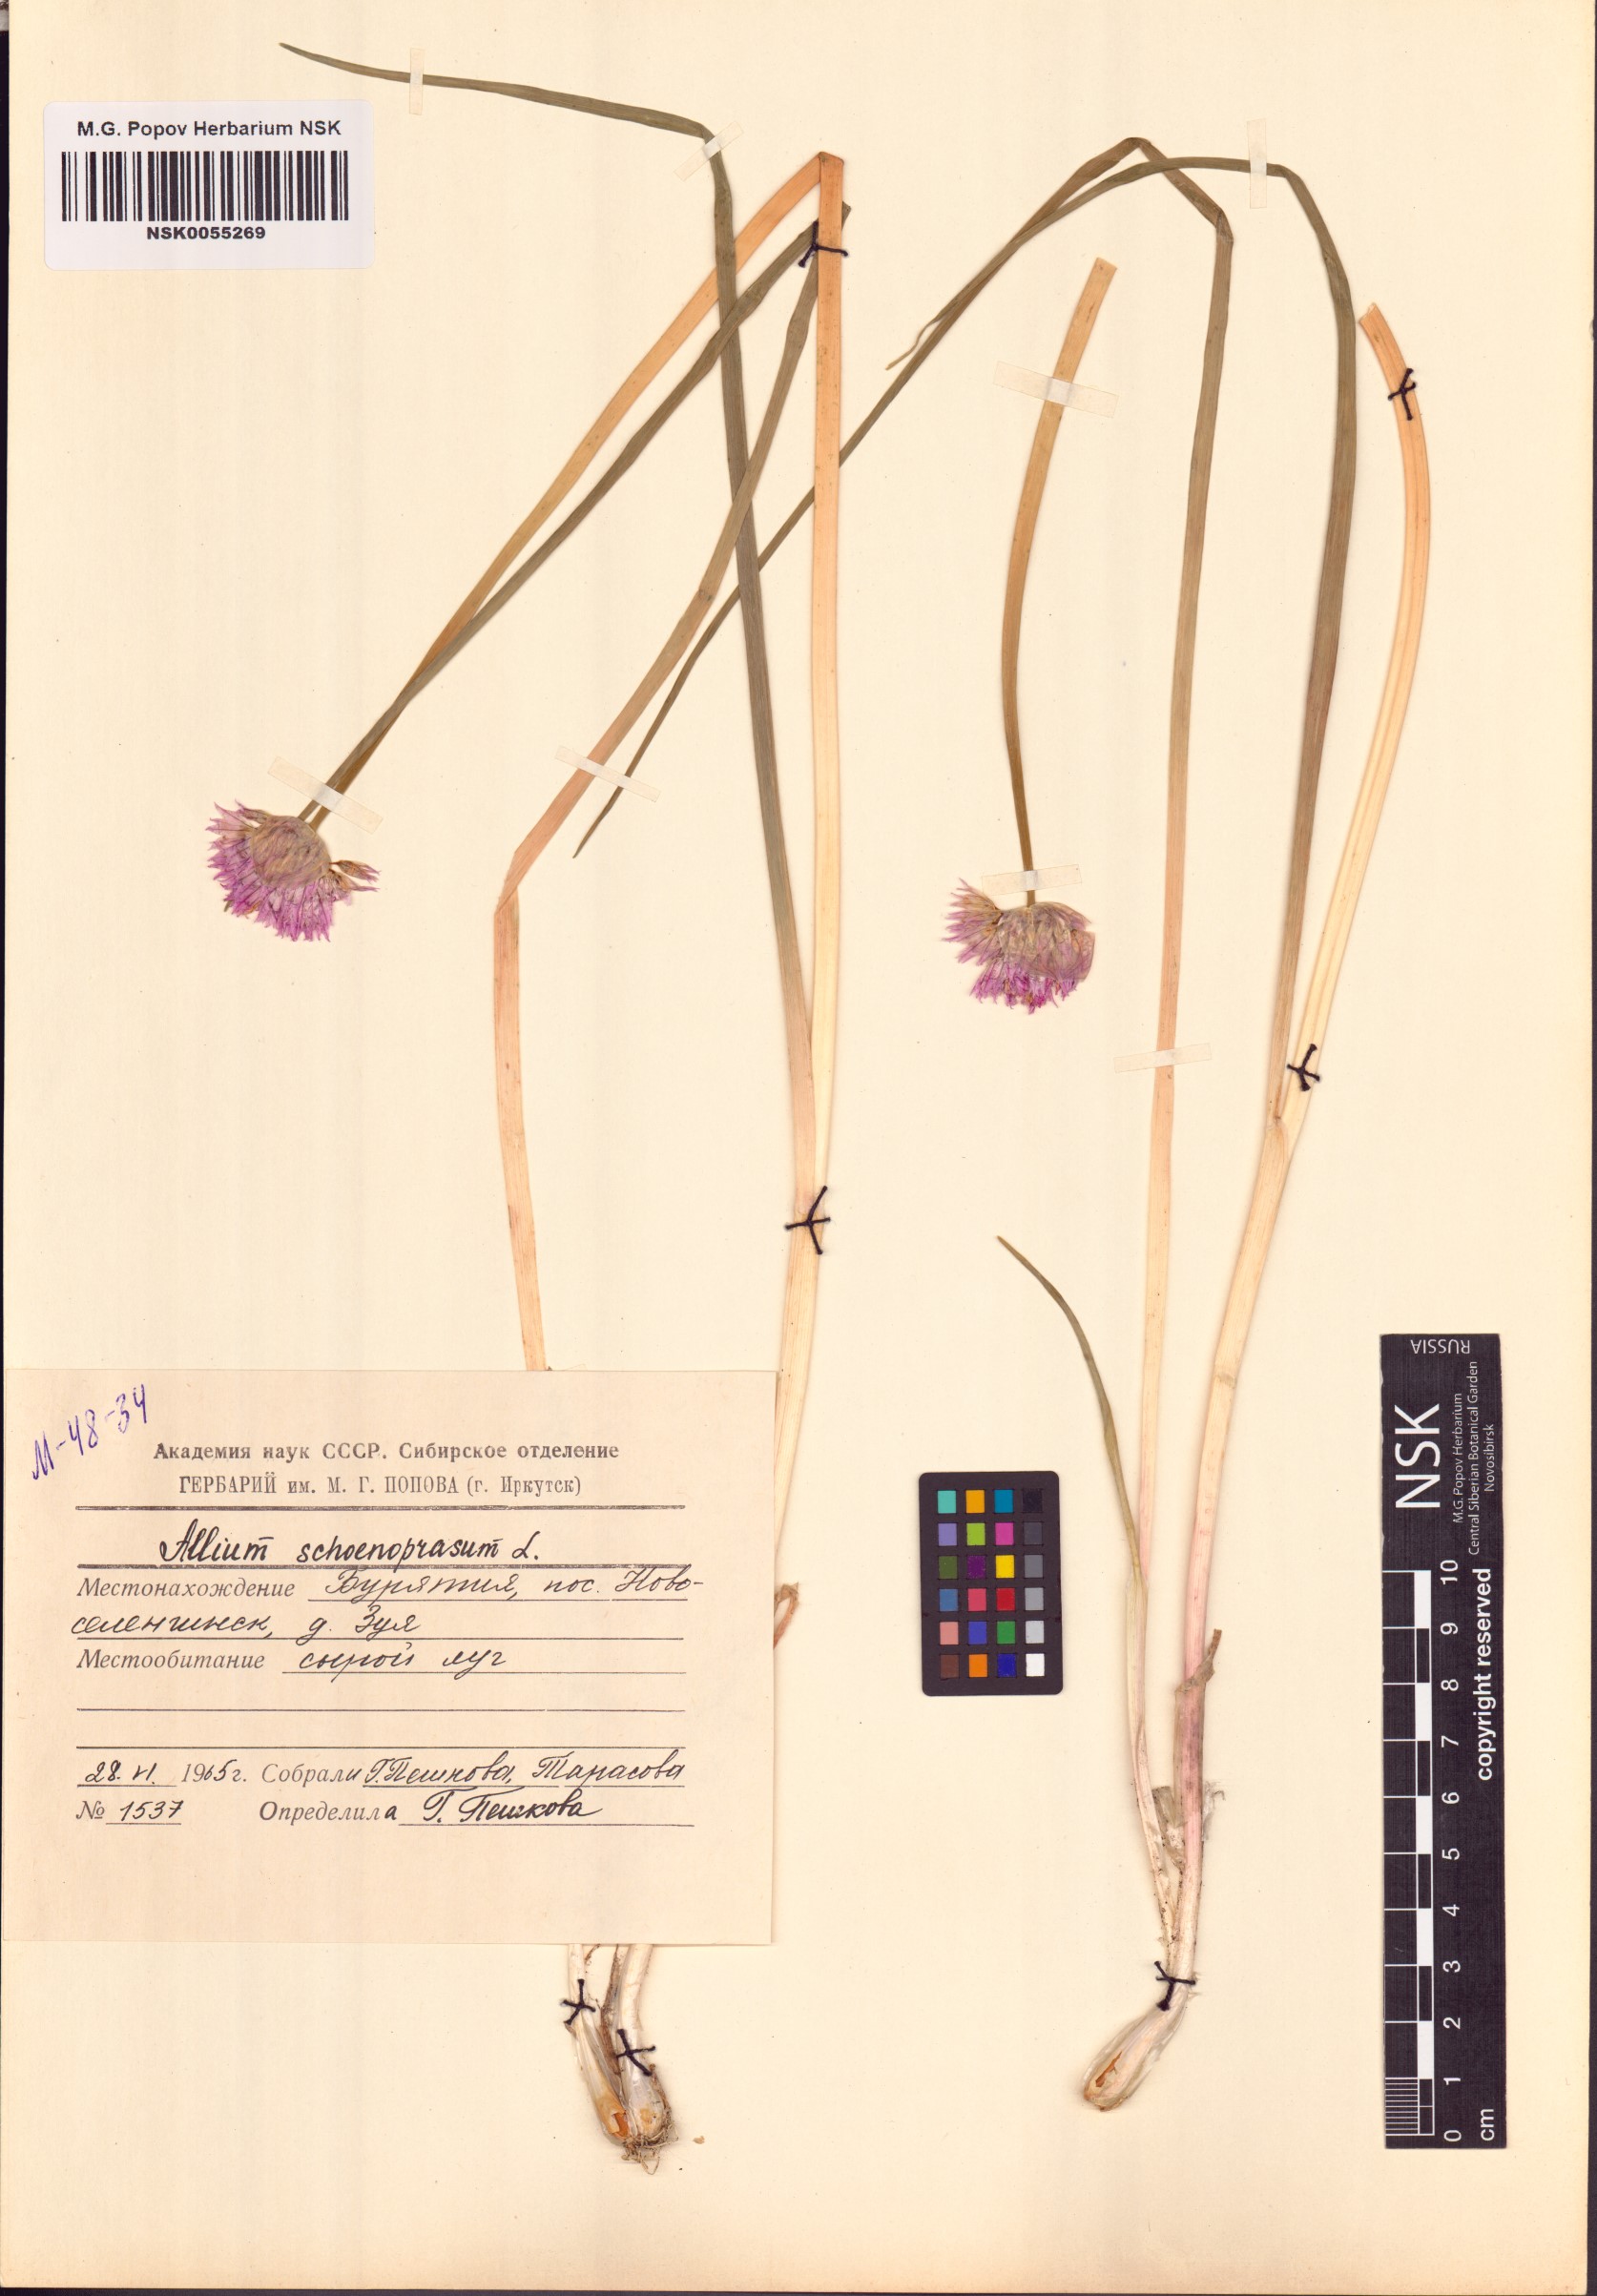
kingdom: Plantae
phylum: Tracheophyta
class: Liliopsida
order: Asparagales
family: Amaryllidaceae
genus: Allium
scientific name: Allium schoenoprasum
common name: Chives
